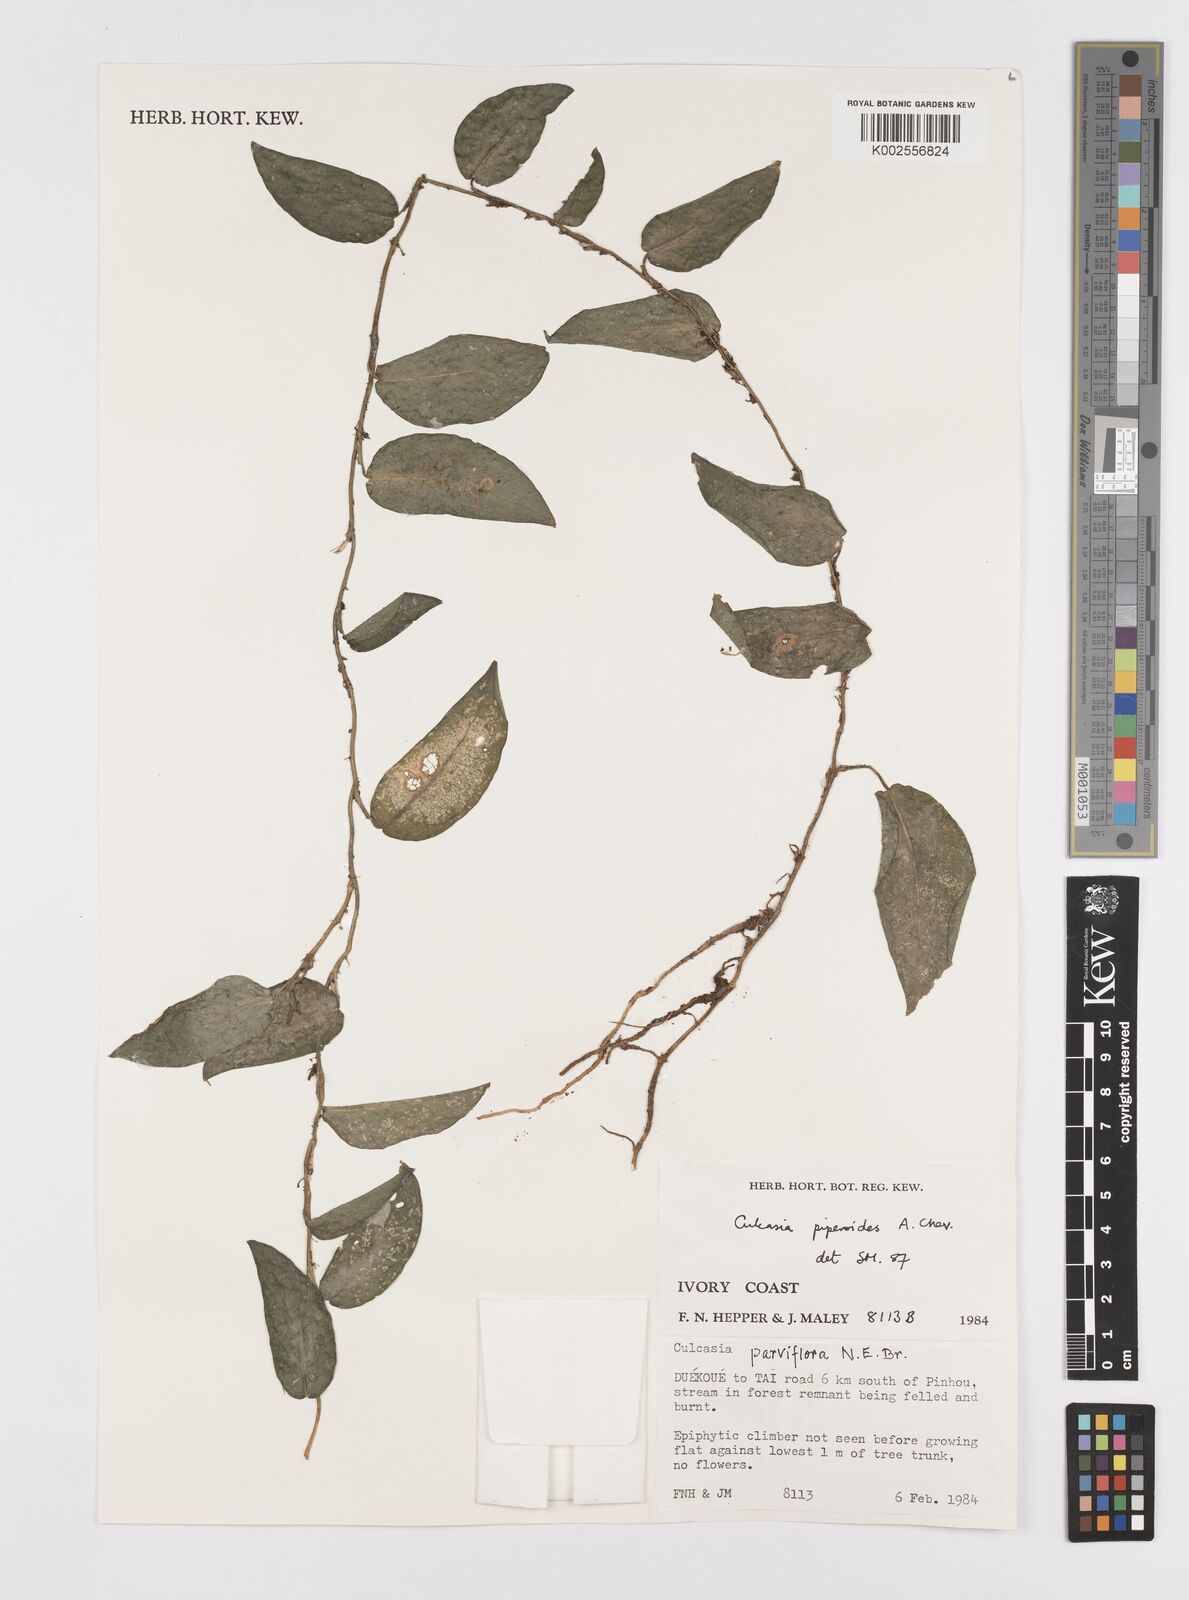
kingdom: Plantae
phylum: Tracheophyta
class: Liliopsida
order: Alismatales
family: Araceae
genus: Culcasia
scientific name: Culcasia parviflora
